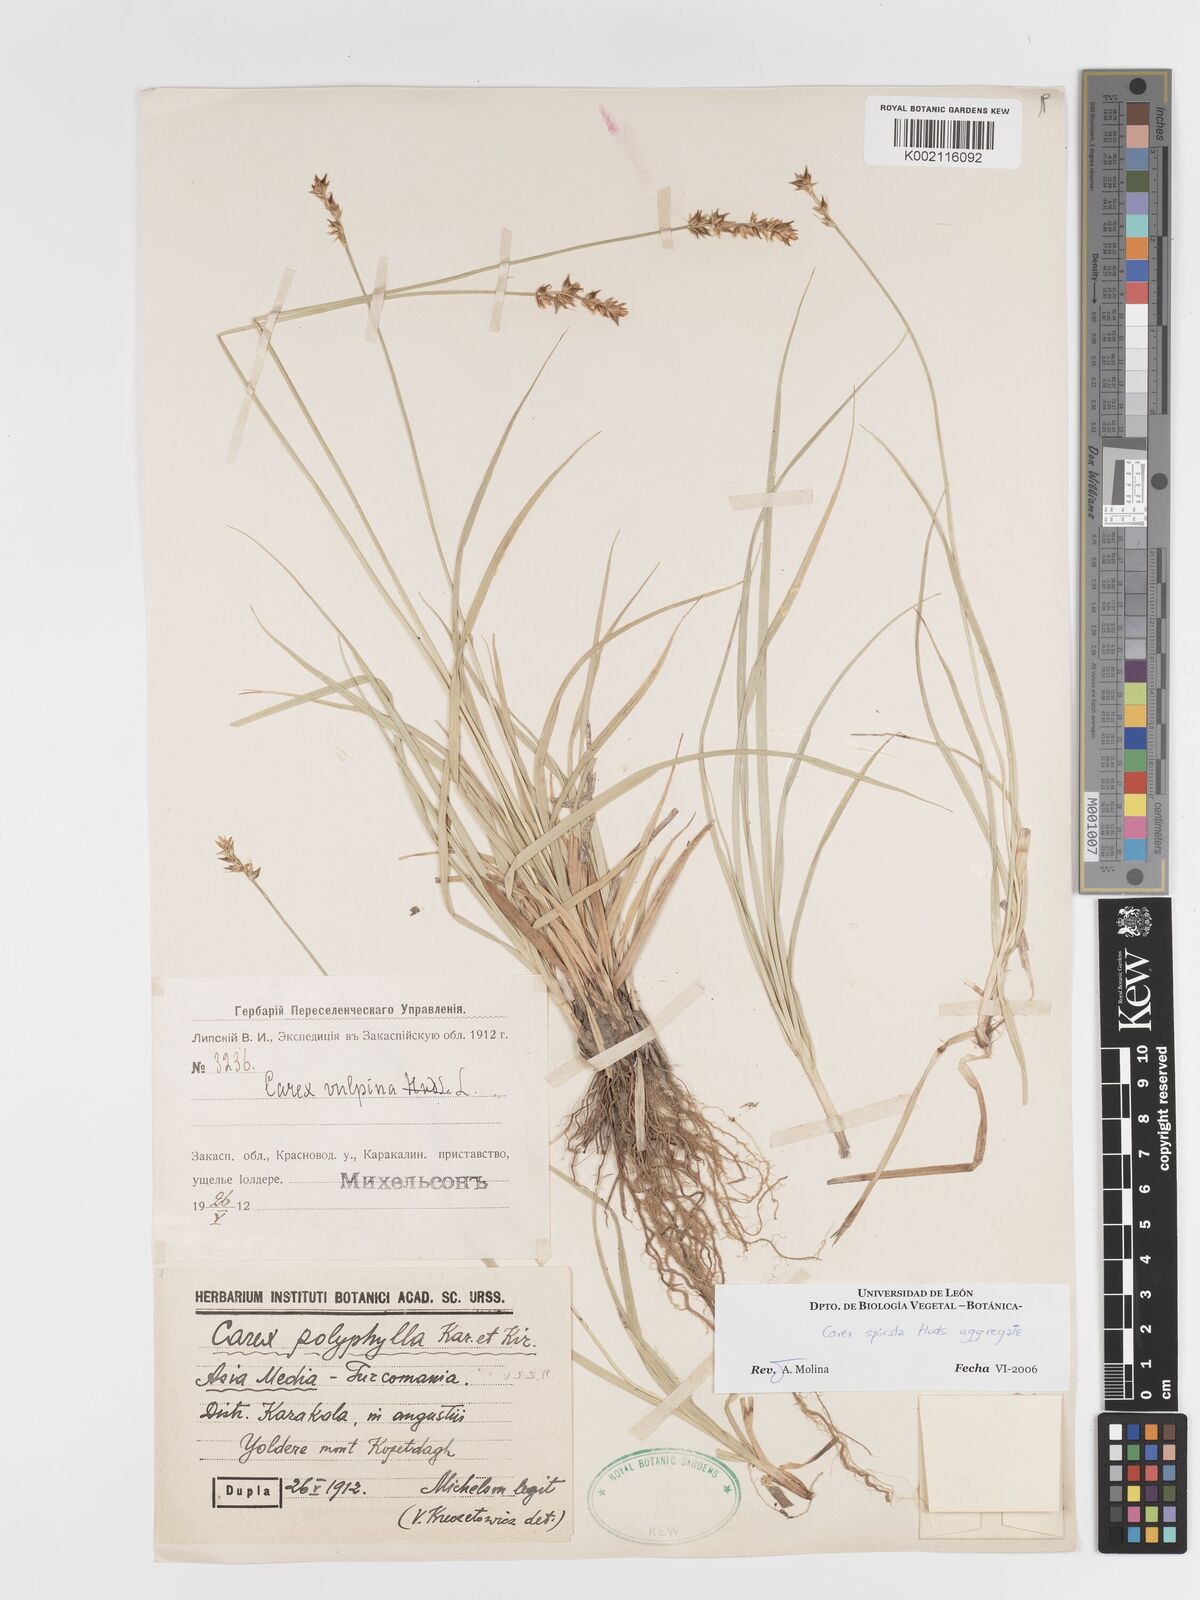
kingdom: Plantae
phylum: Tracheophyta
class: Liliopsida
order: Poales
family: Cyperaceae
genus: Carex
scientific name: Carex spicata
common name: Spiked sedge
